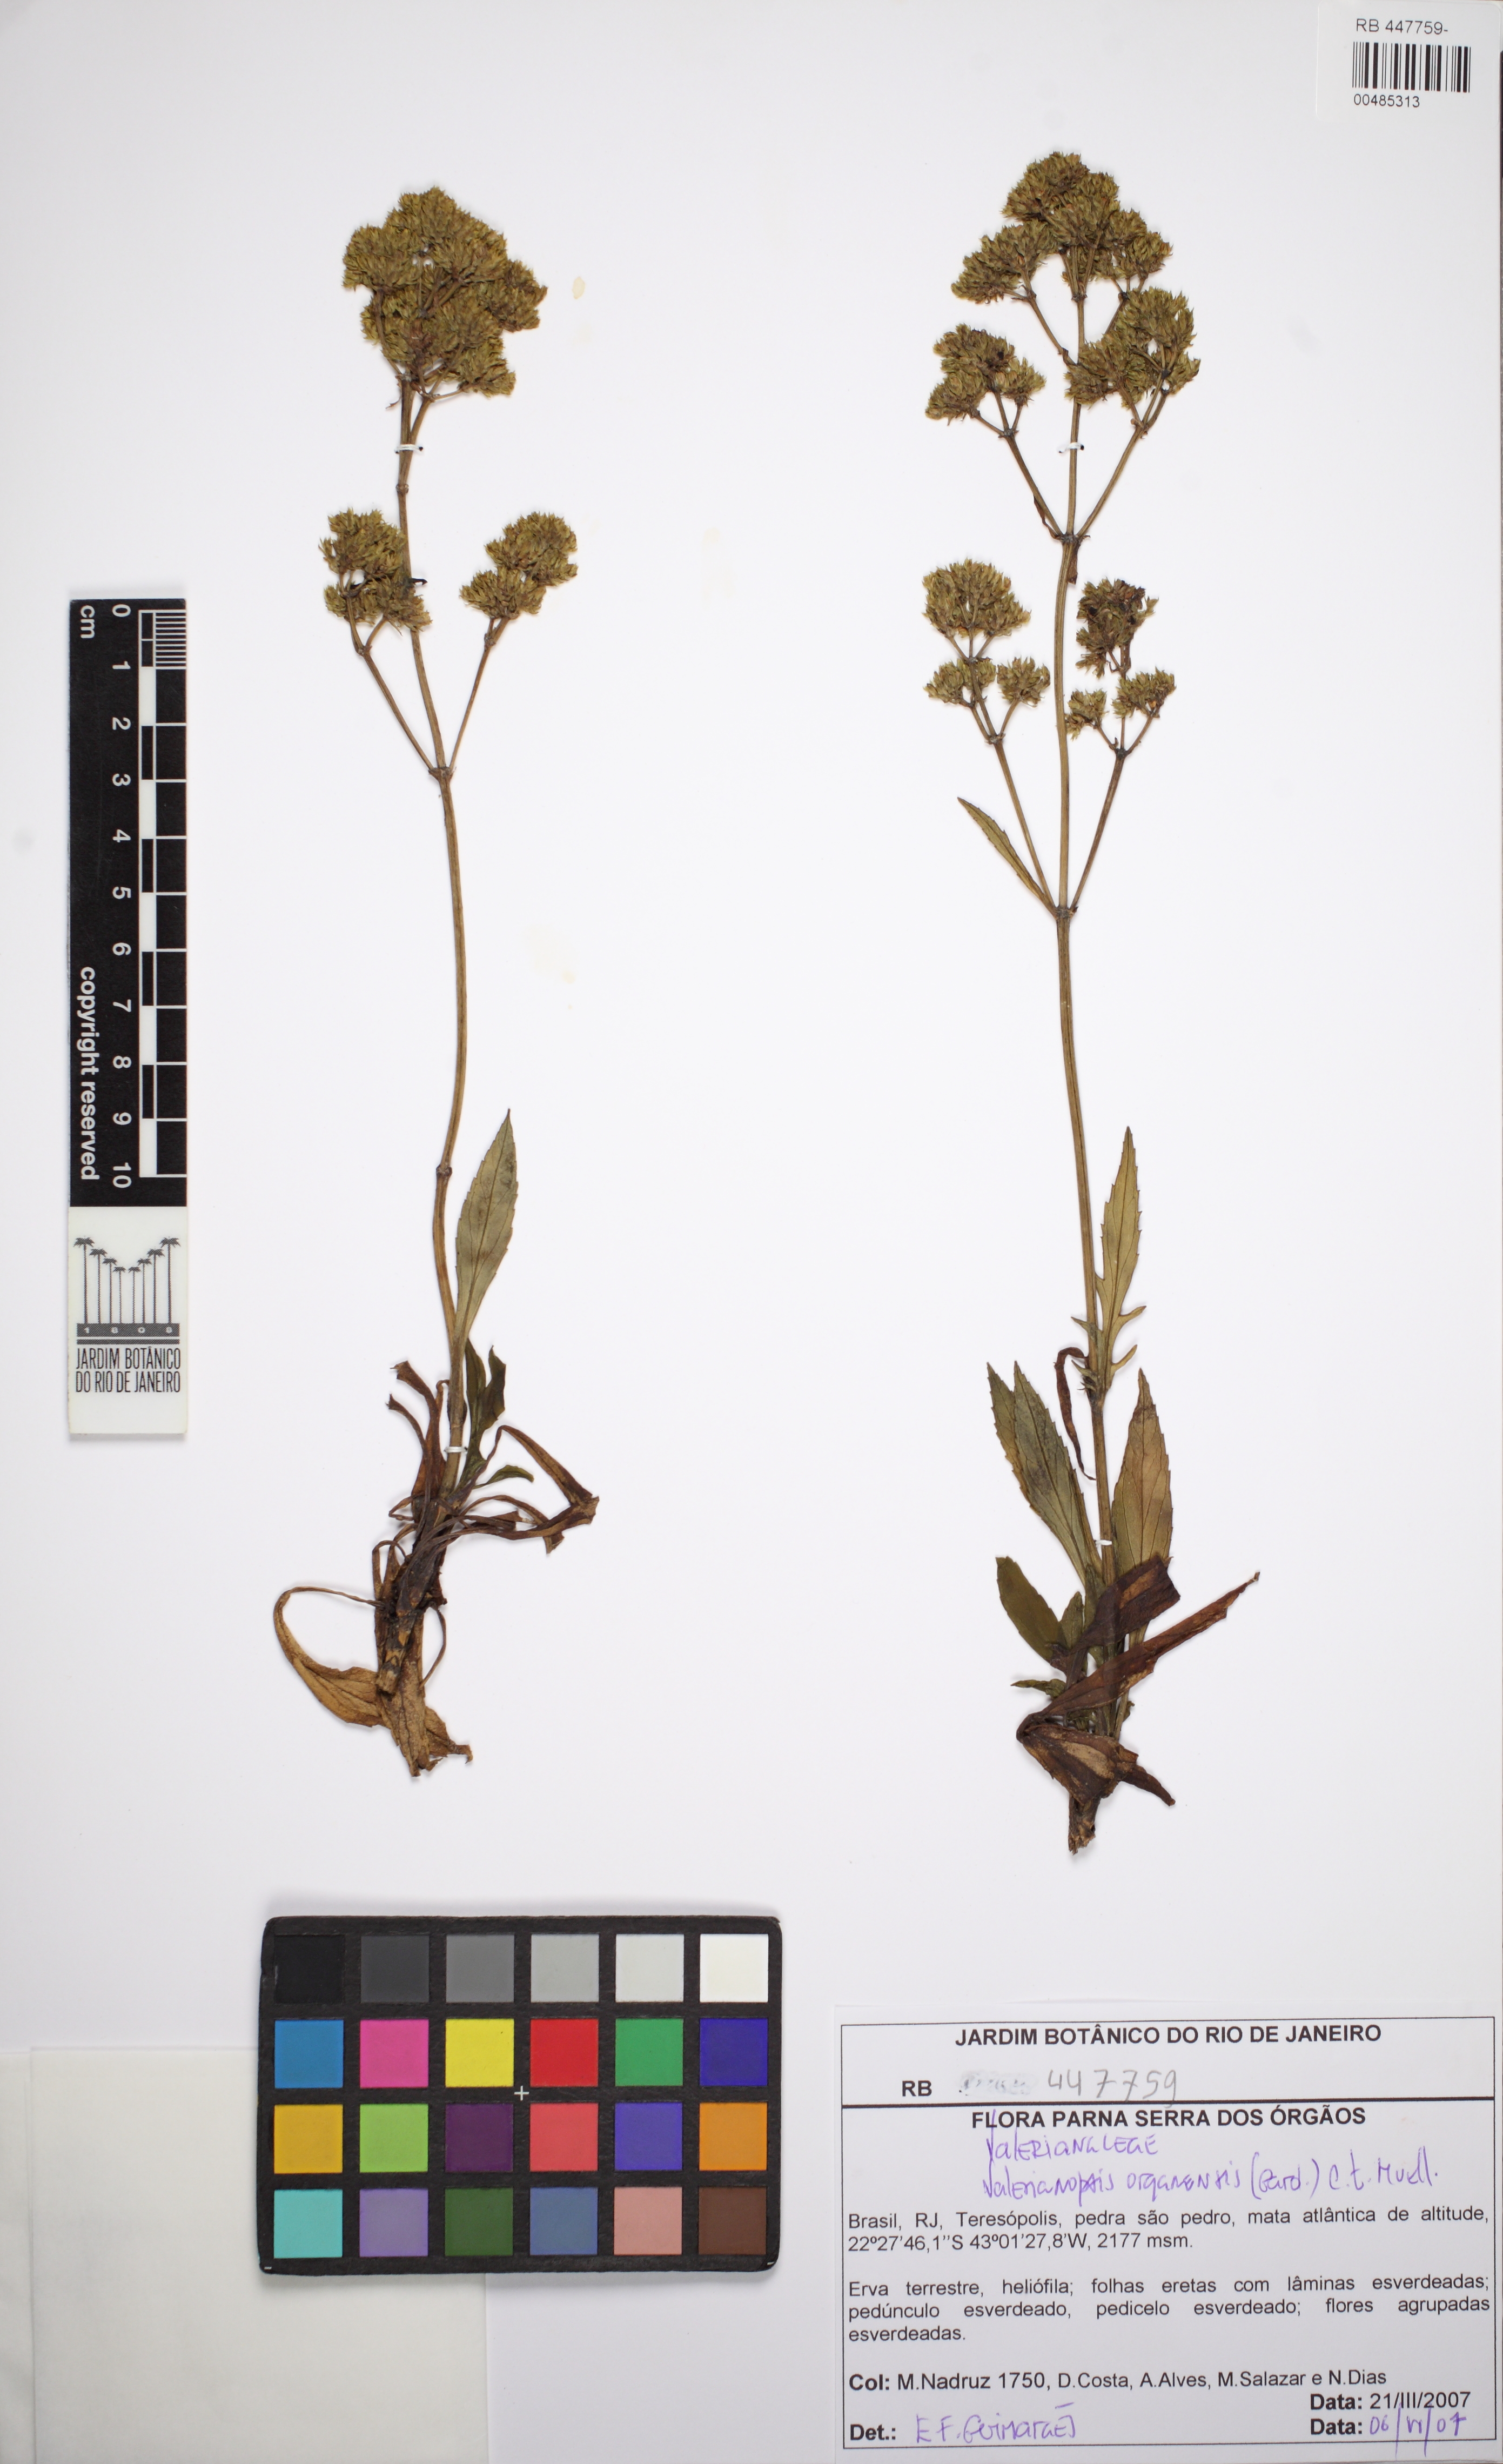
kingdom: Plantae
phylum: Tracheophyta
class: Magnoliopsida
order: Dipsacales
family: Caprifoliaceae
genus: Valeriana
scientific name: Valeriana organensis
